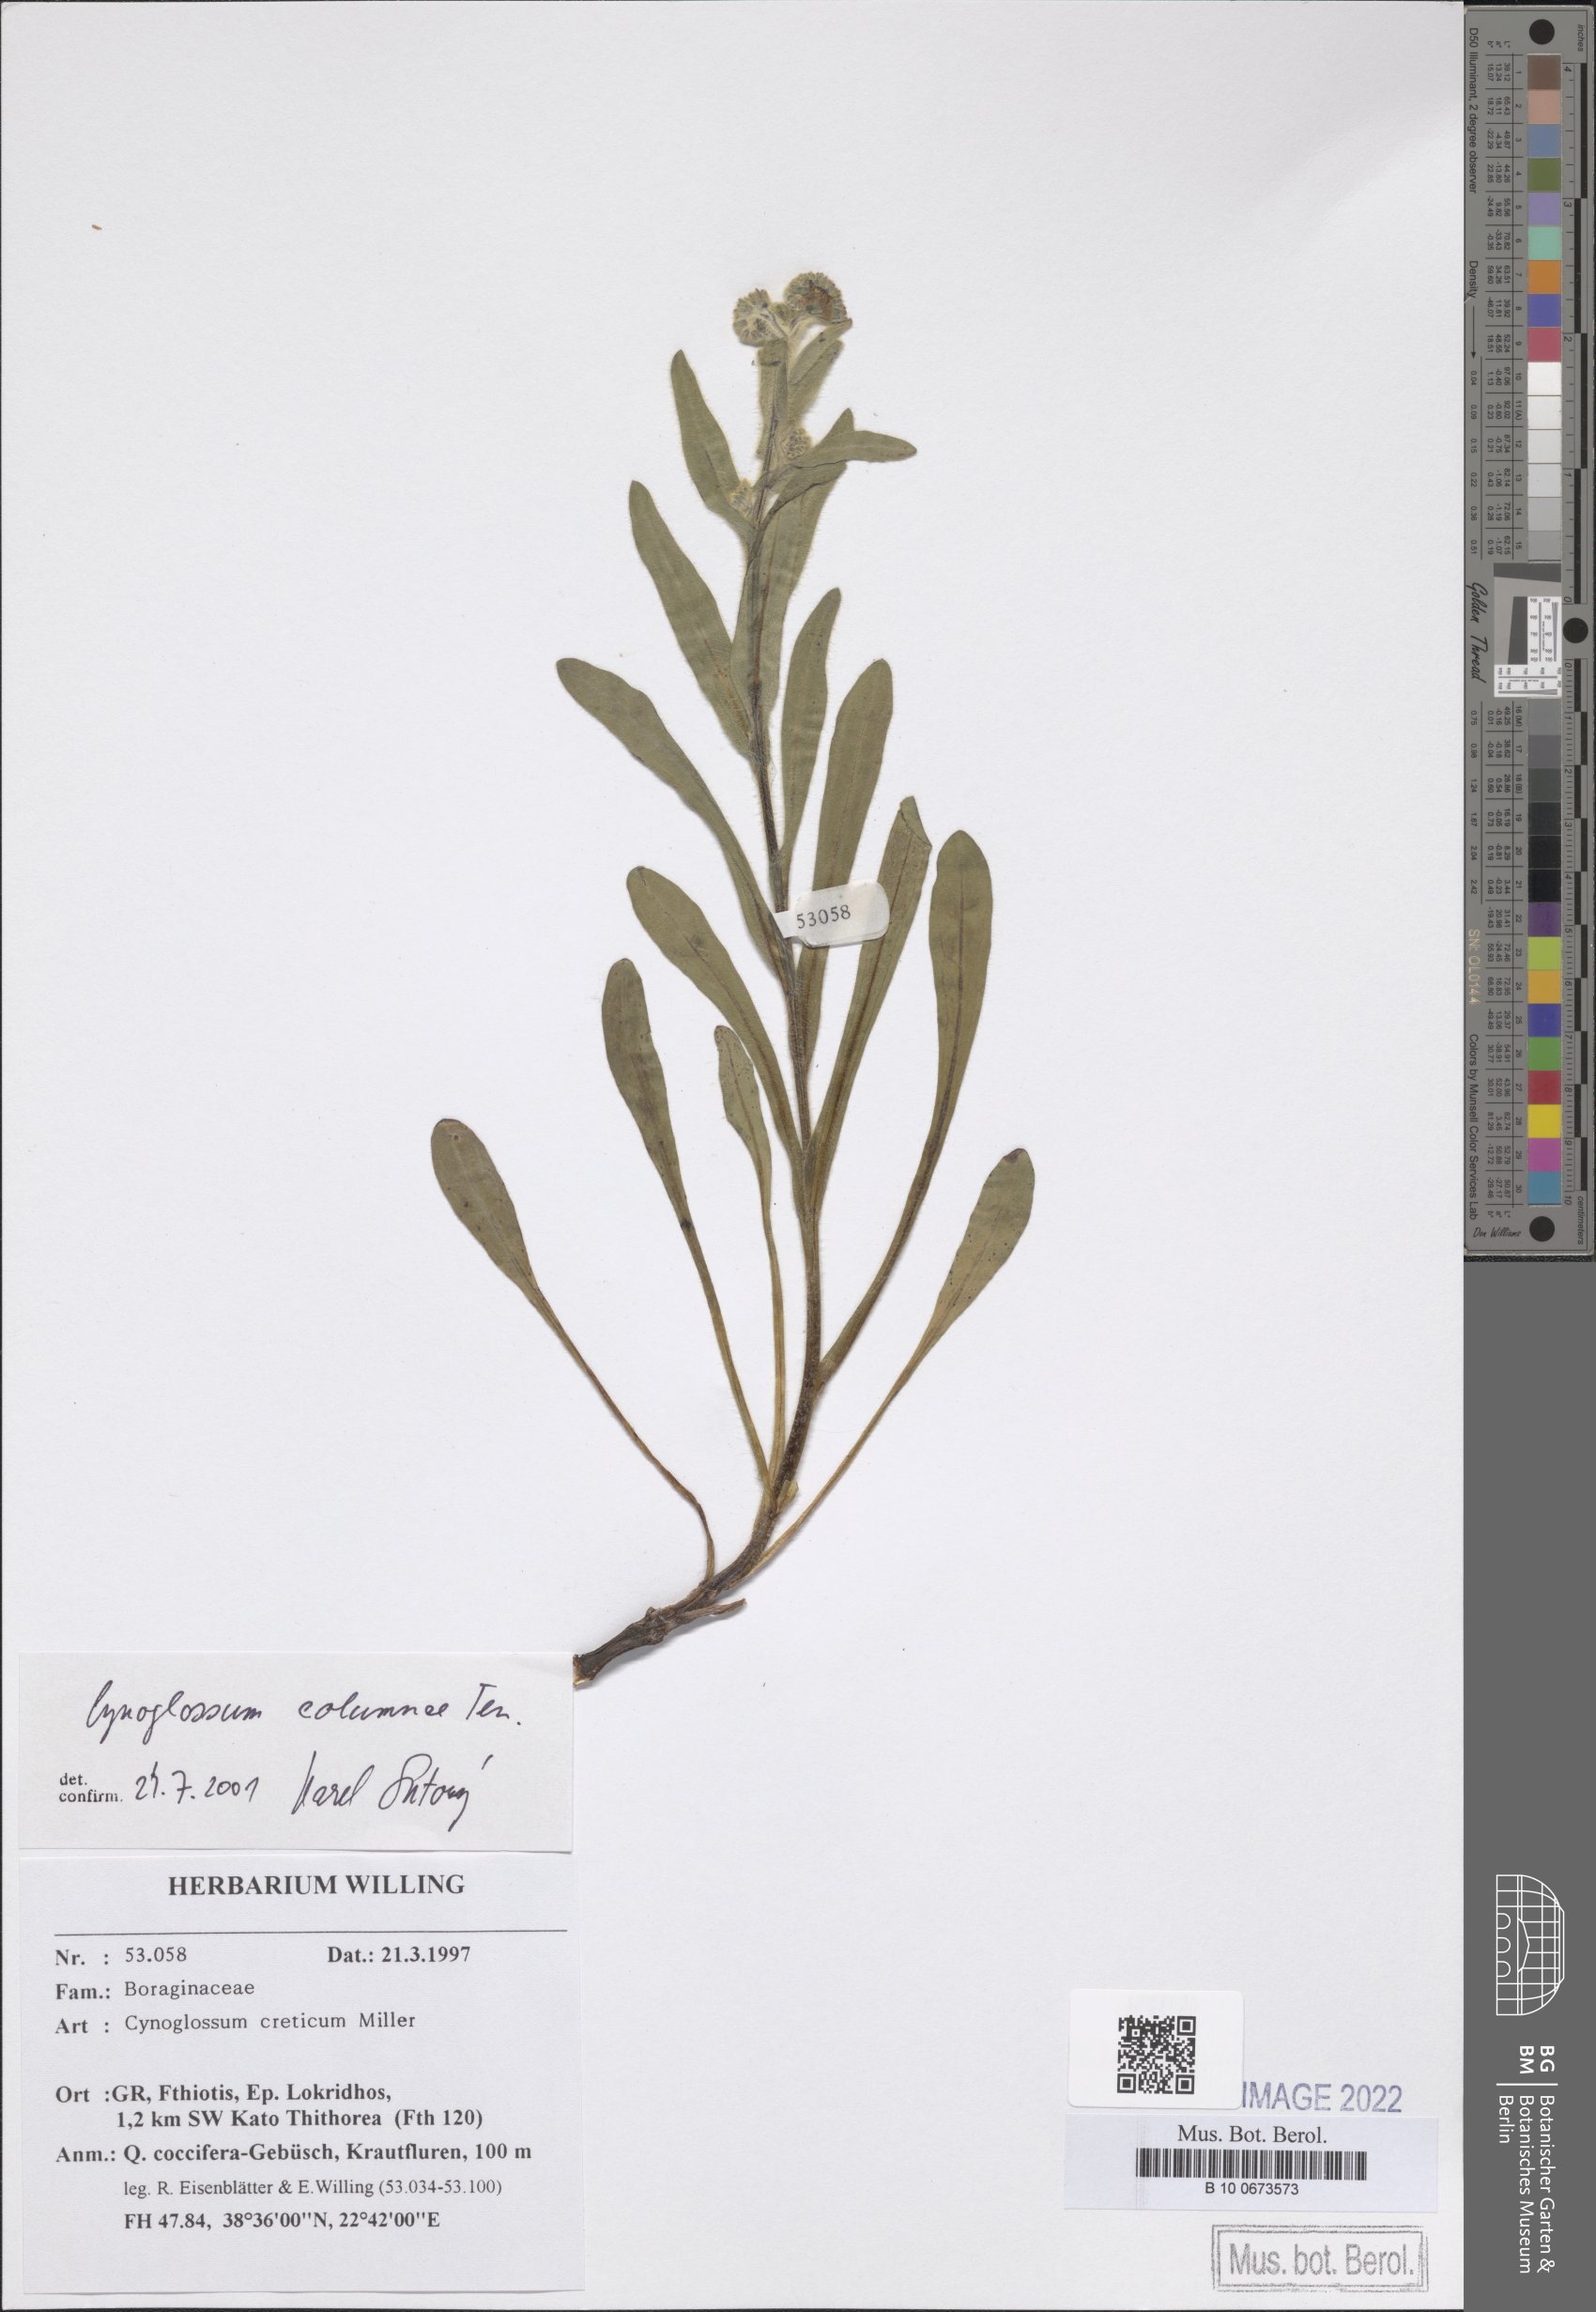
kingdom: Plantae
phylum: Tracheophyta
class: Magnoliopsida
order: Boraginales
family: Boraginaceae
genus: Rindera
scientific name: Rindera columnae
